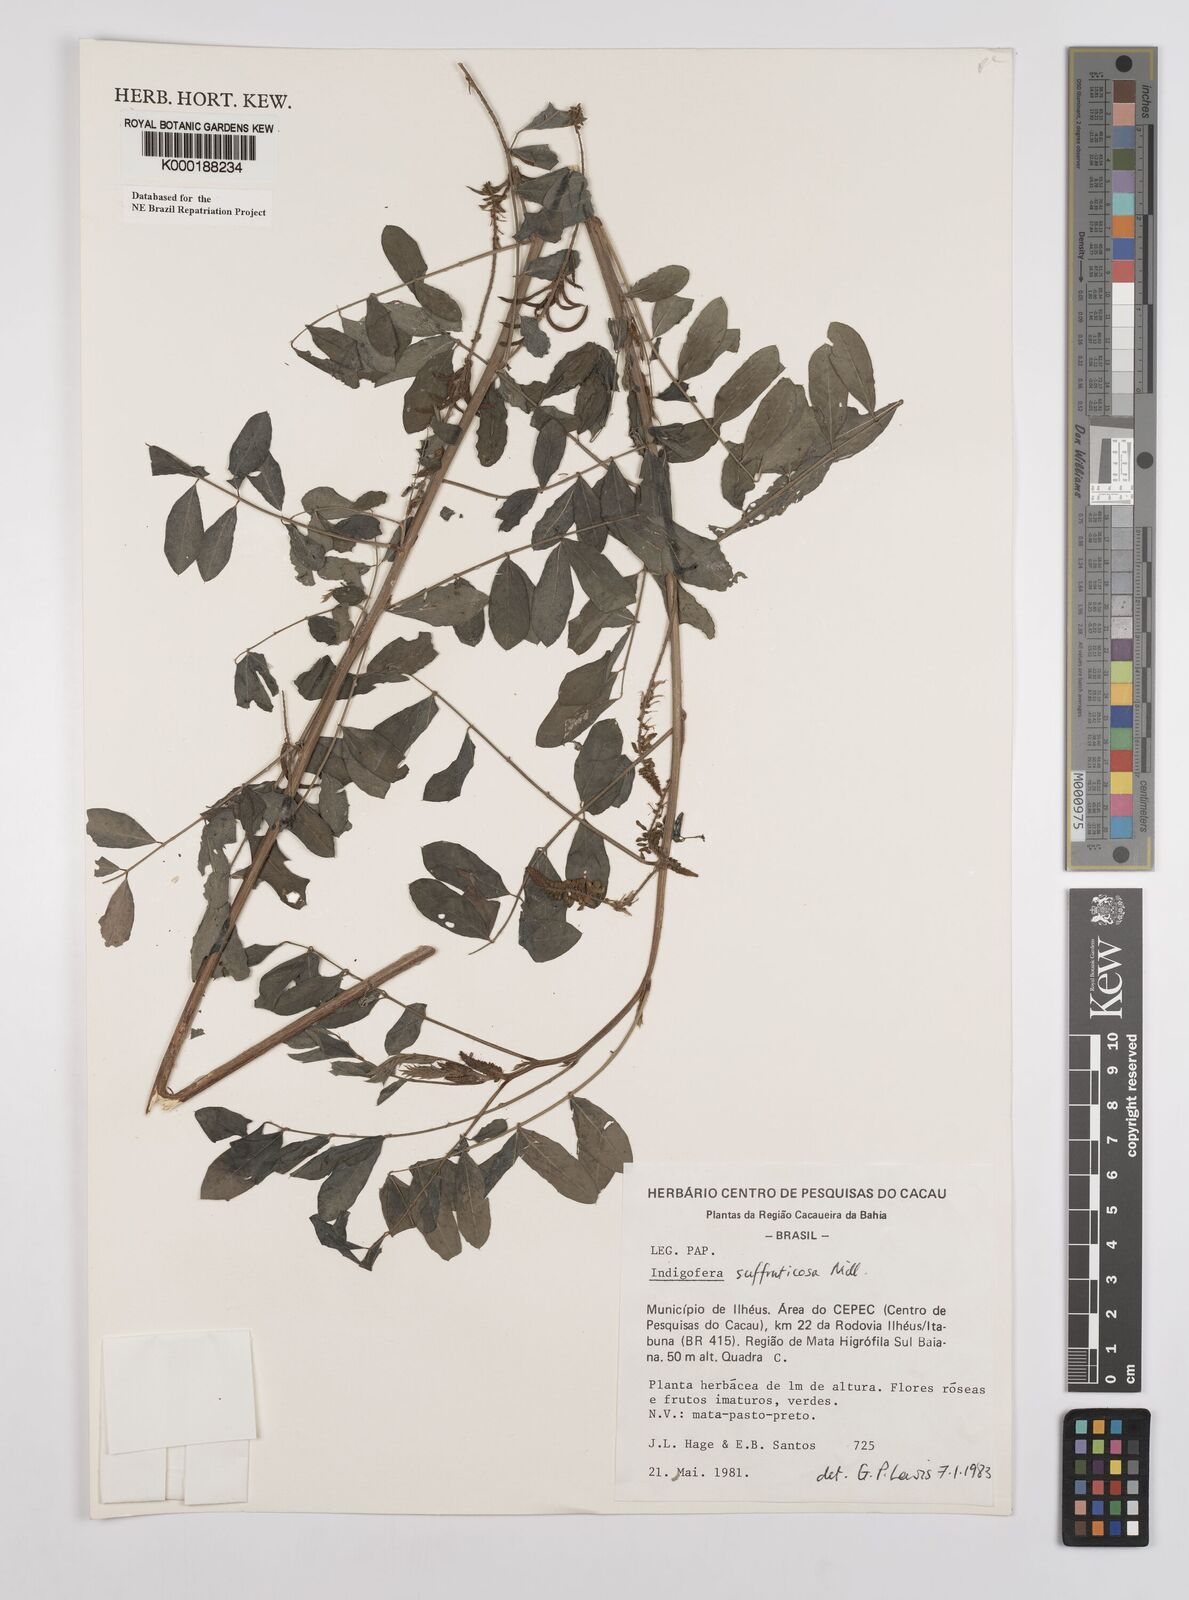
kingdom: Plantae
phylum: Tracheophyta
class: Magnoliopsida
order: Fabales
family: Fabaceae
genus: Indigofera
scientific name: Indigofera suffruticosa
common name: Anil de pasto
